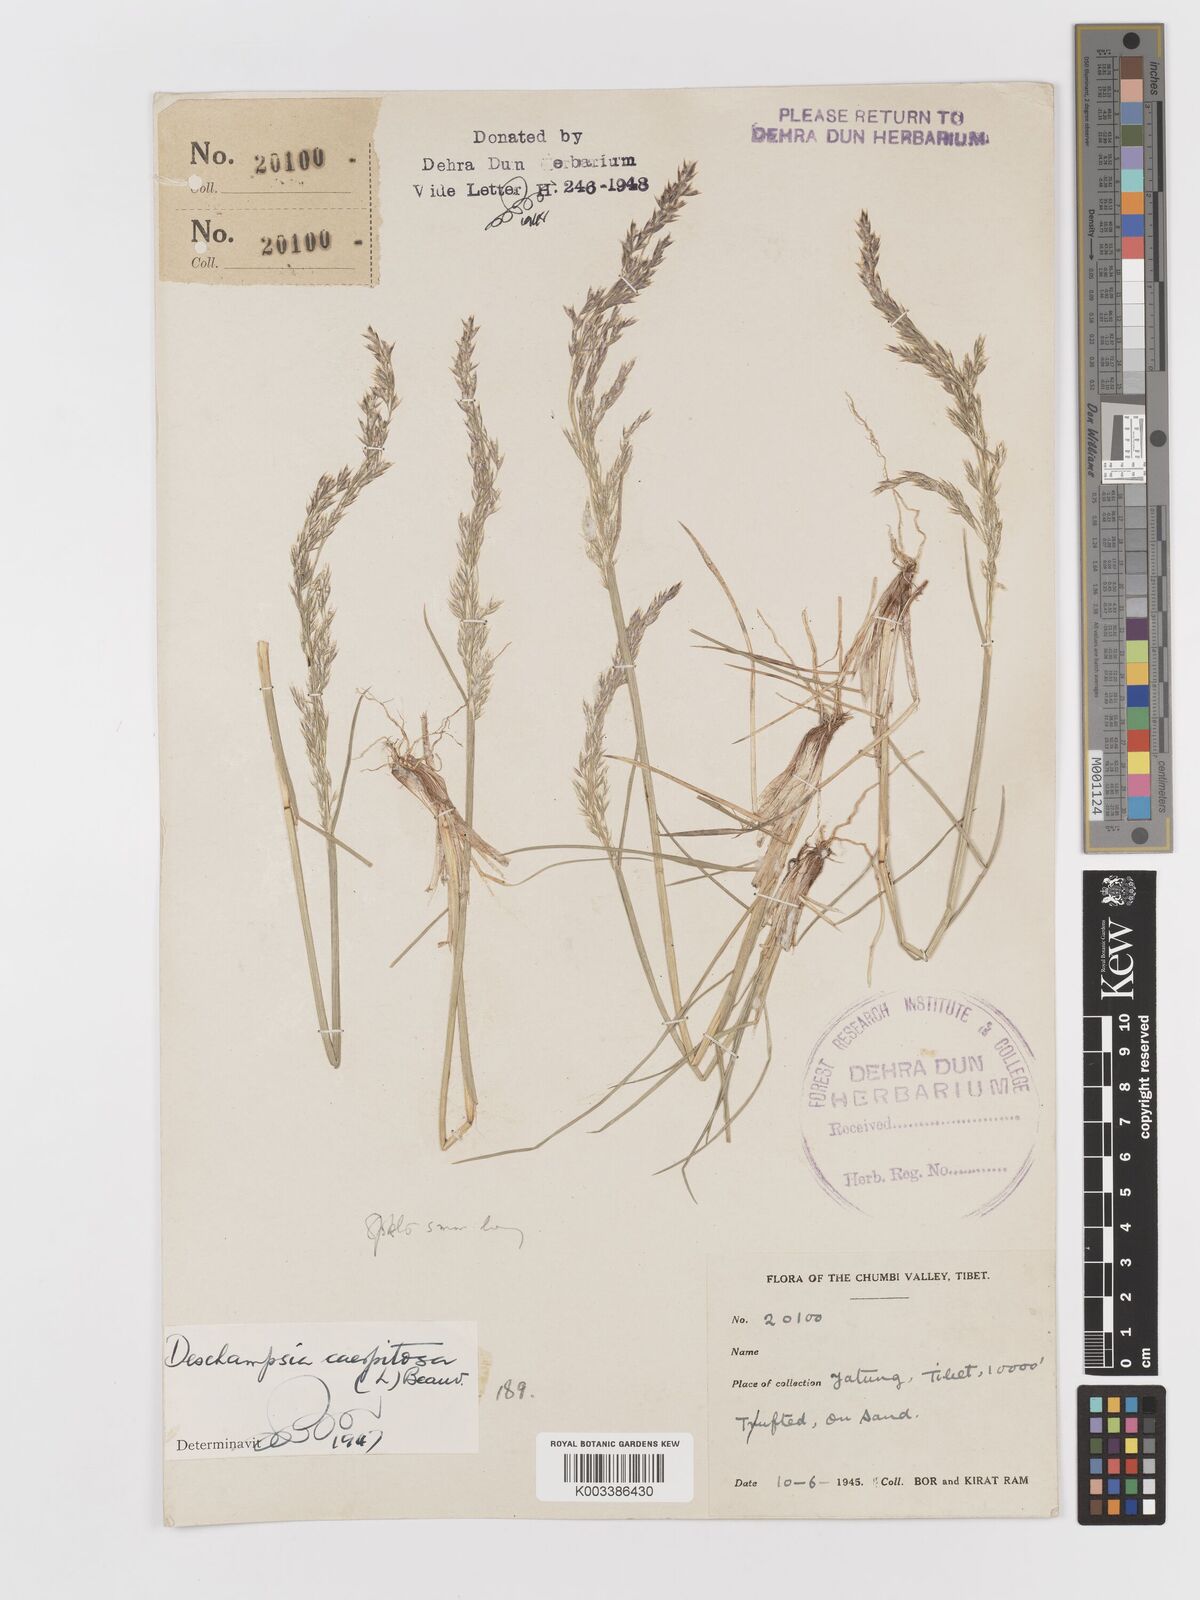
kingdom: Plantae
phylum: Tracheophyta
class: Liliopsida
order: Poales
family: Poaceae
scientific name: Poaceae
